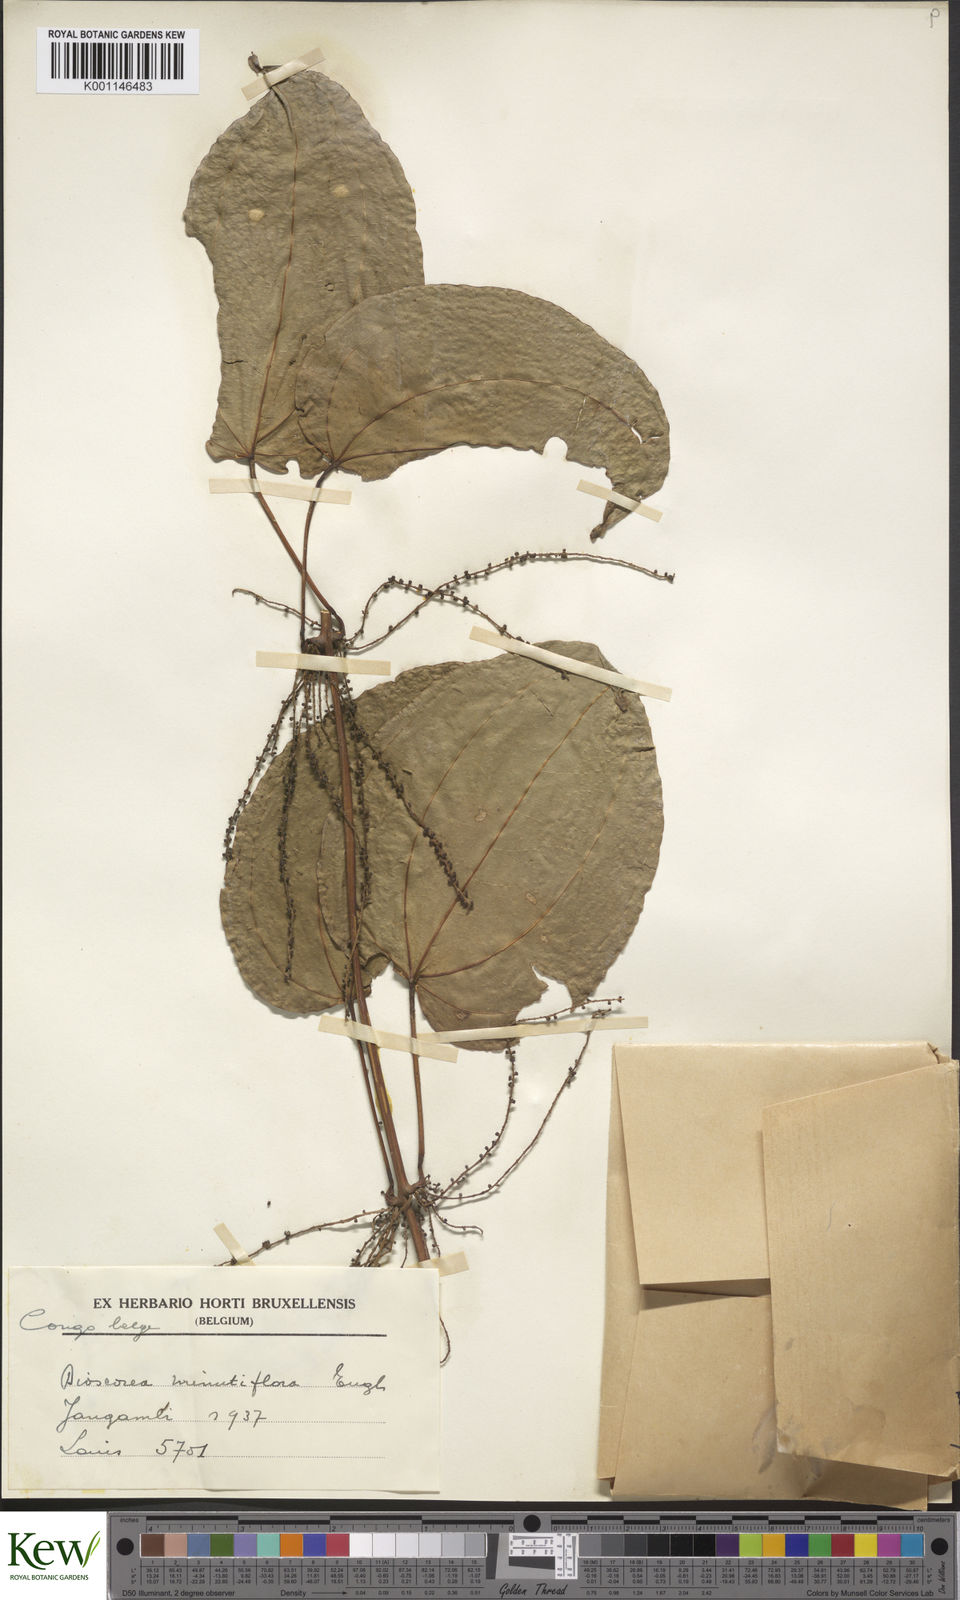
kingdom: Plantae
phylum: Tracheophyta
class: Liliopsida
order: Dioscoreales
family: Dioscoreaceae
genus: Dioscorea
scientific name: Dioscorea minutiflora
